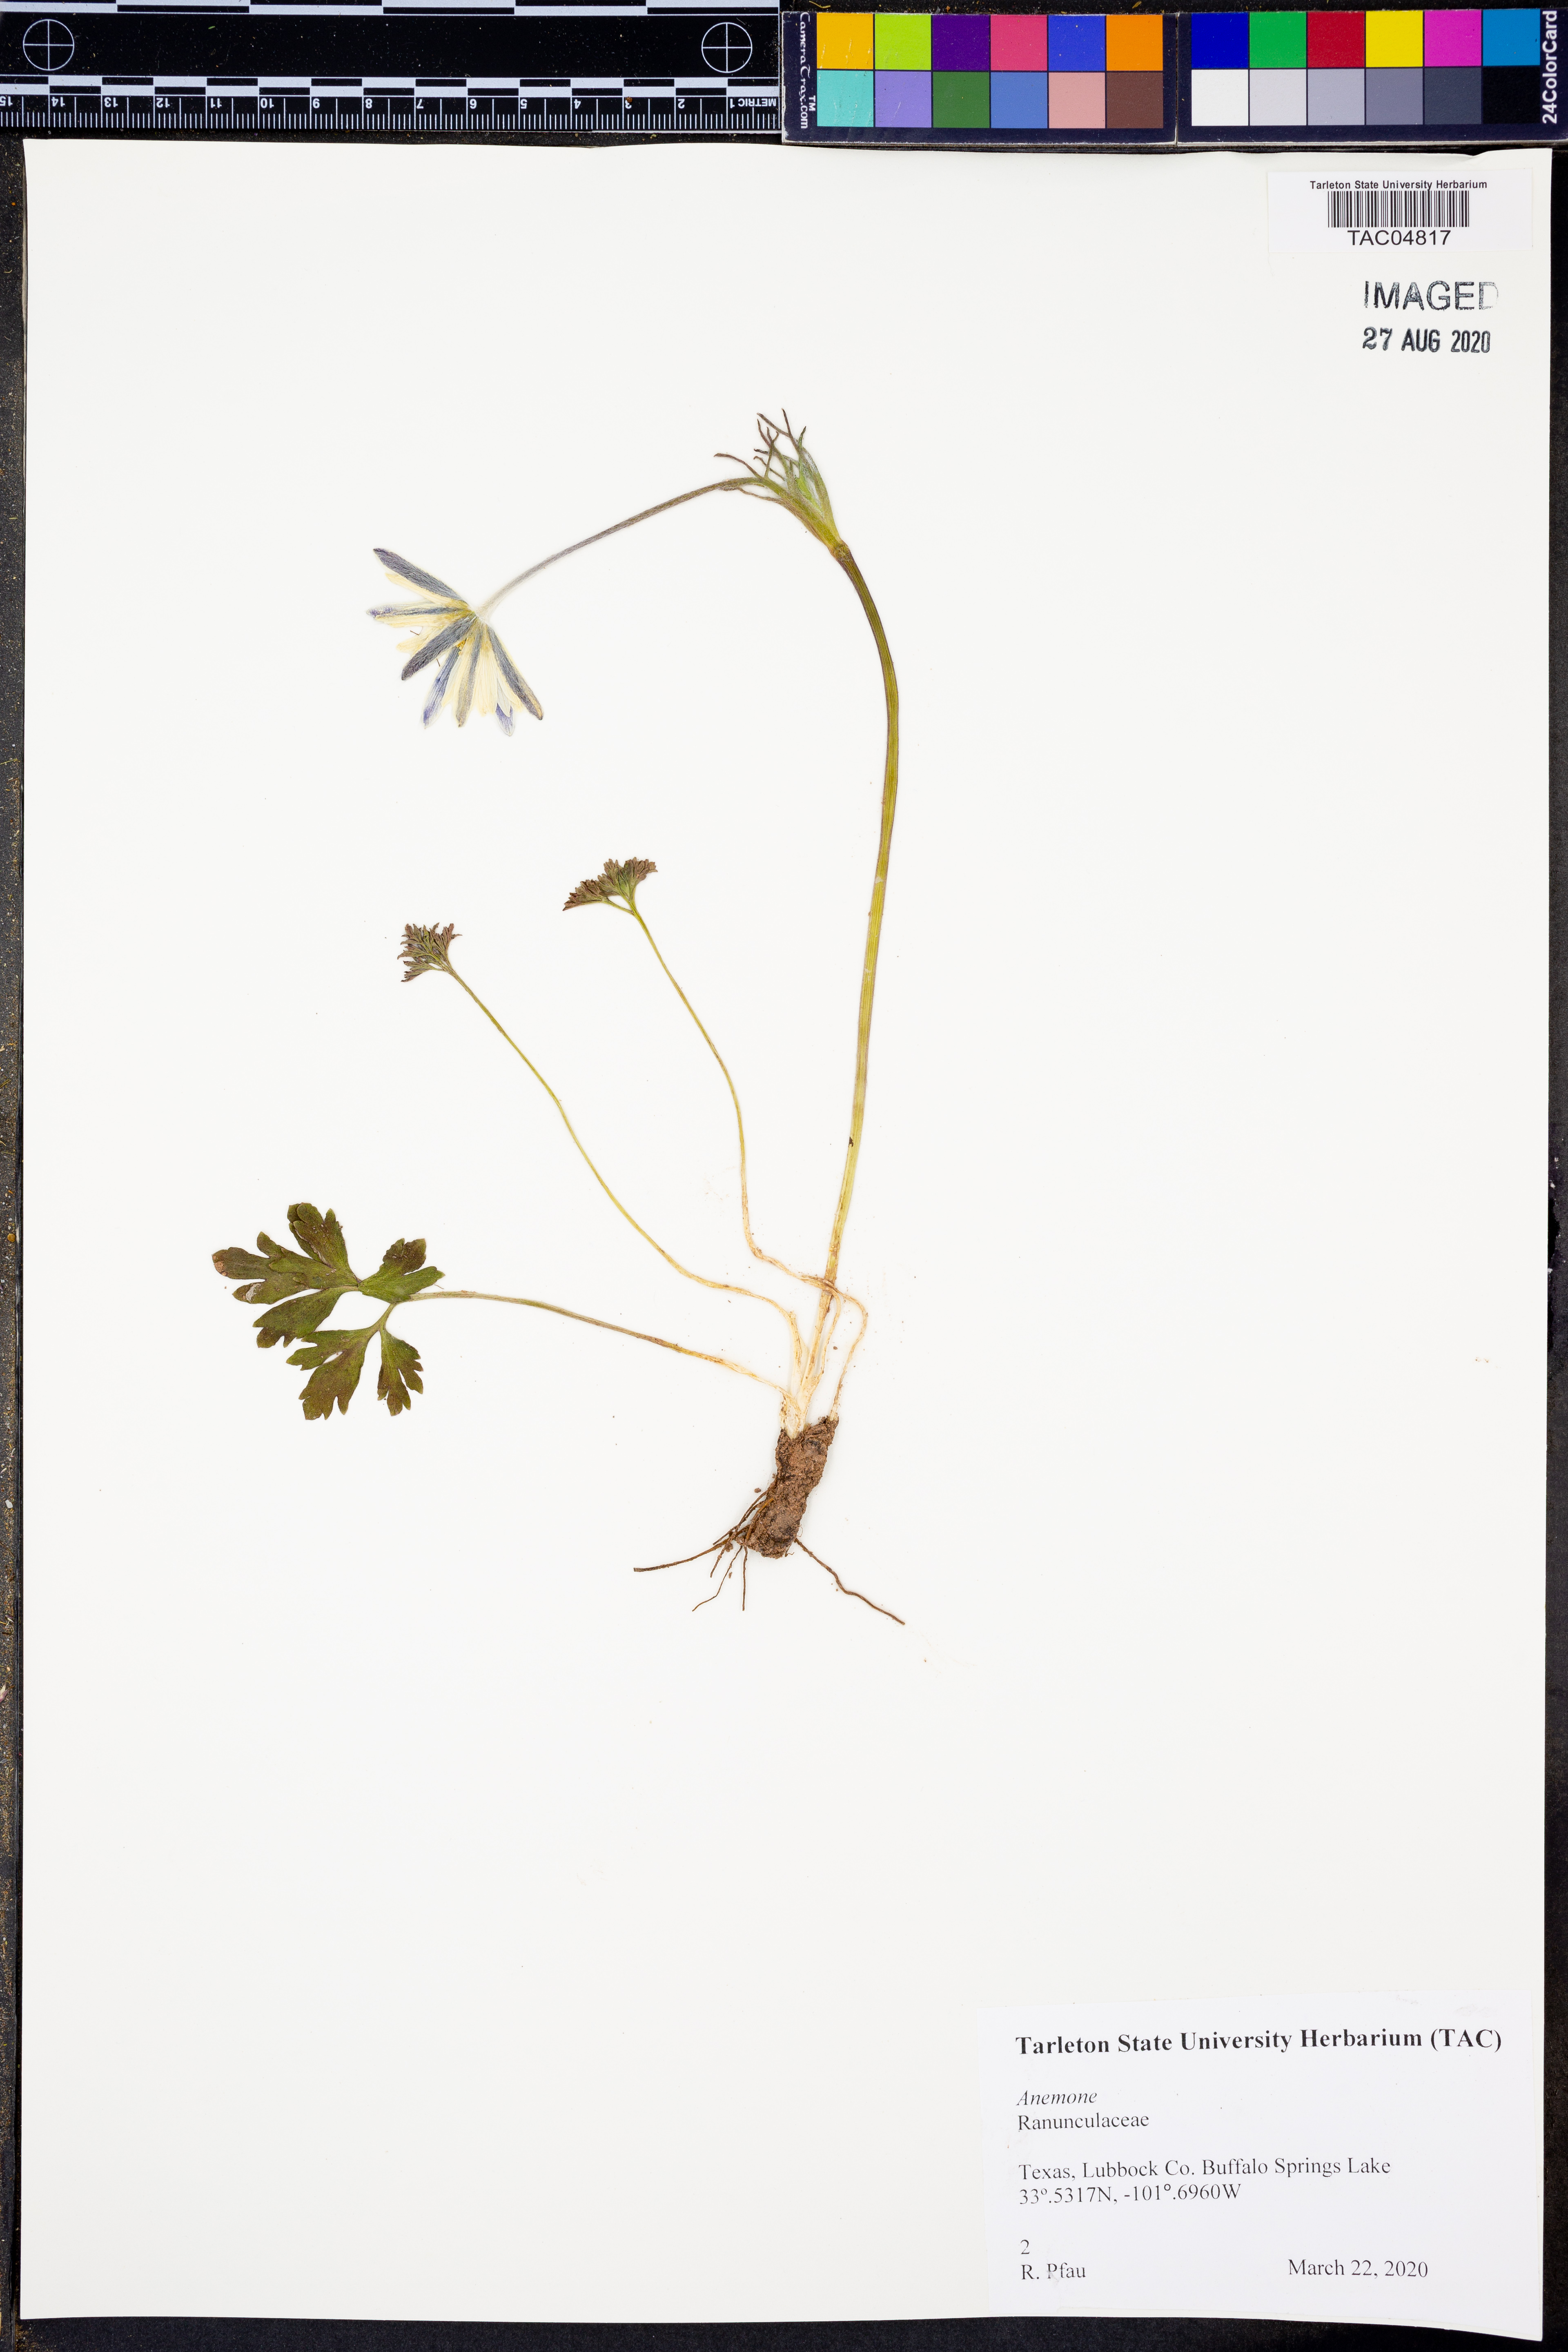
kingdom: Plantae
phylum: Tracheophyta
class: Magnoliopsida
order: Ranunculales
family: Ranunculaceae
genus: Anemone
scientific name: Anemone
